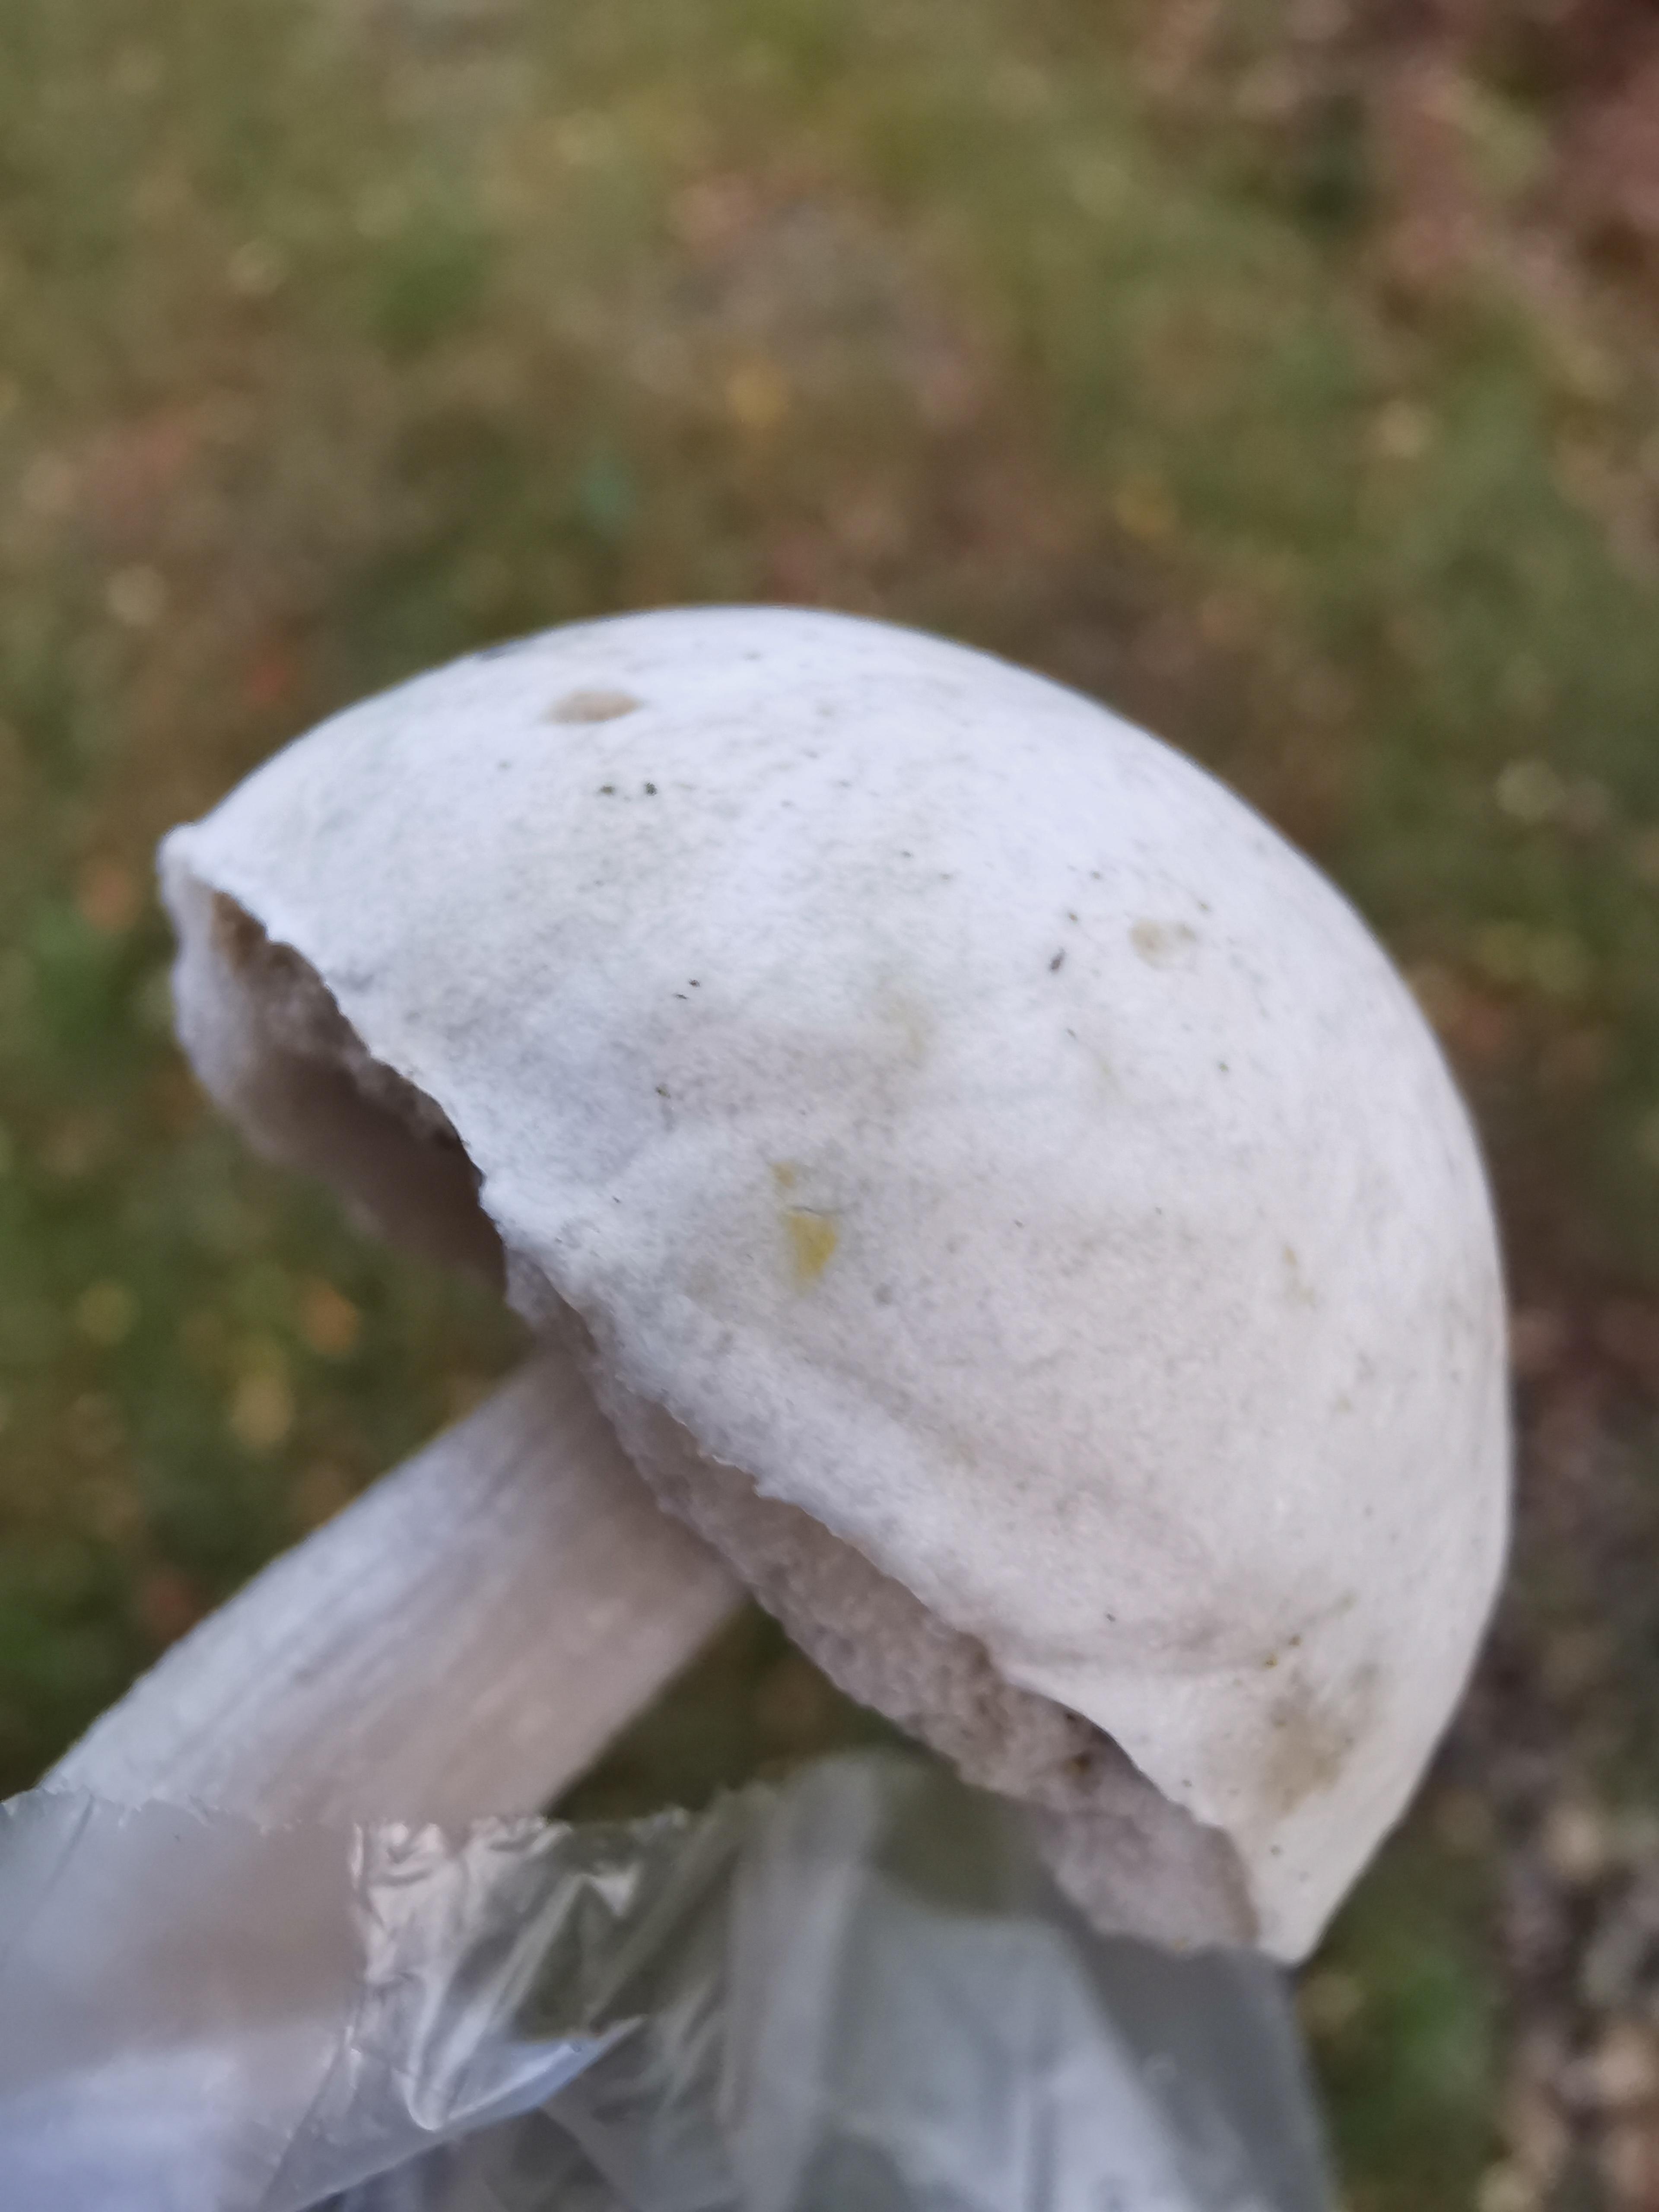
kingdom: Fungi
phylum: Basidiomycota
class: Agaricomycetes
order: Boletales
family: Boletaceae
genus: Leccinum
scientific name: Leccinum scabrum
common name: hvid skælrørhat
